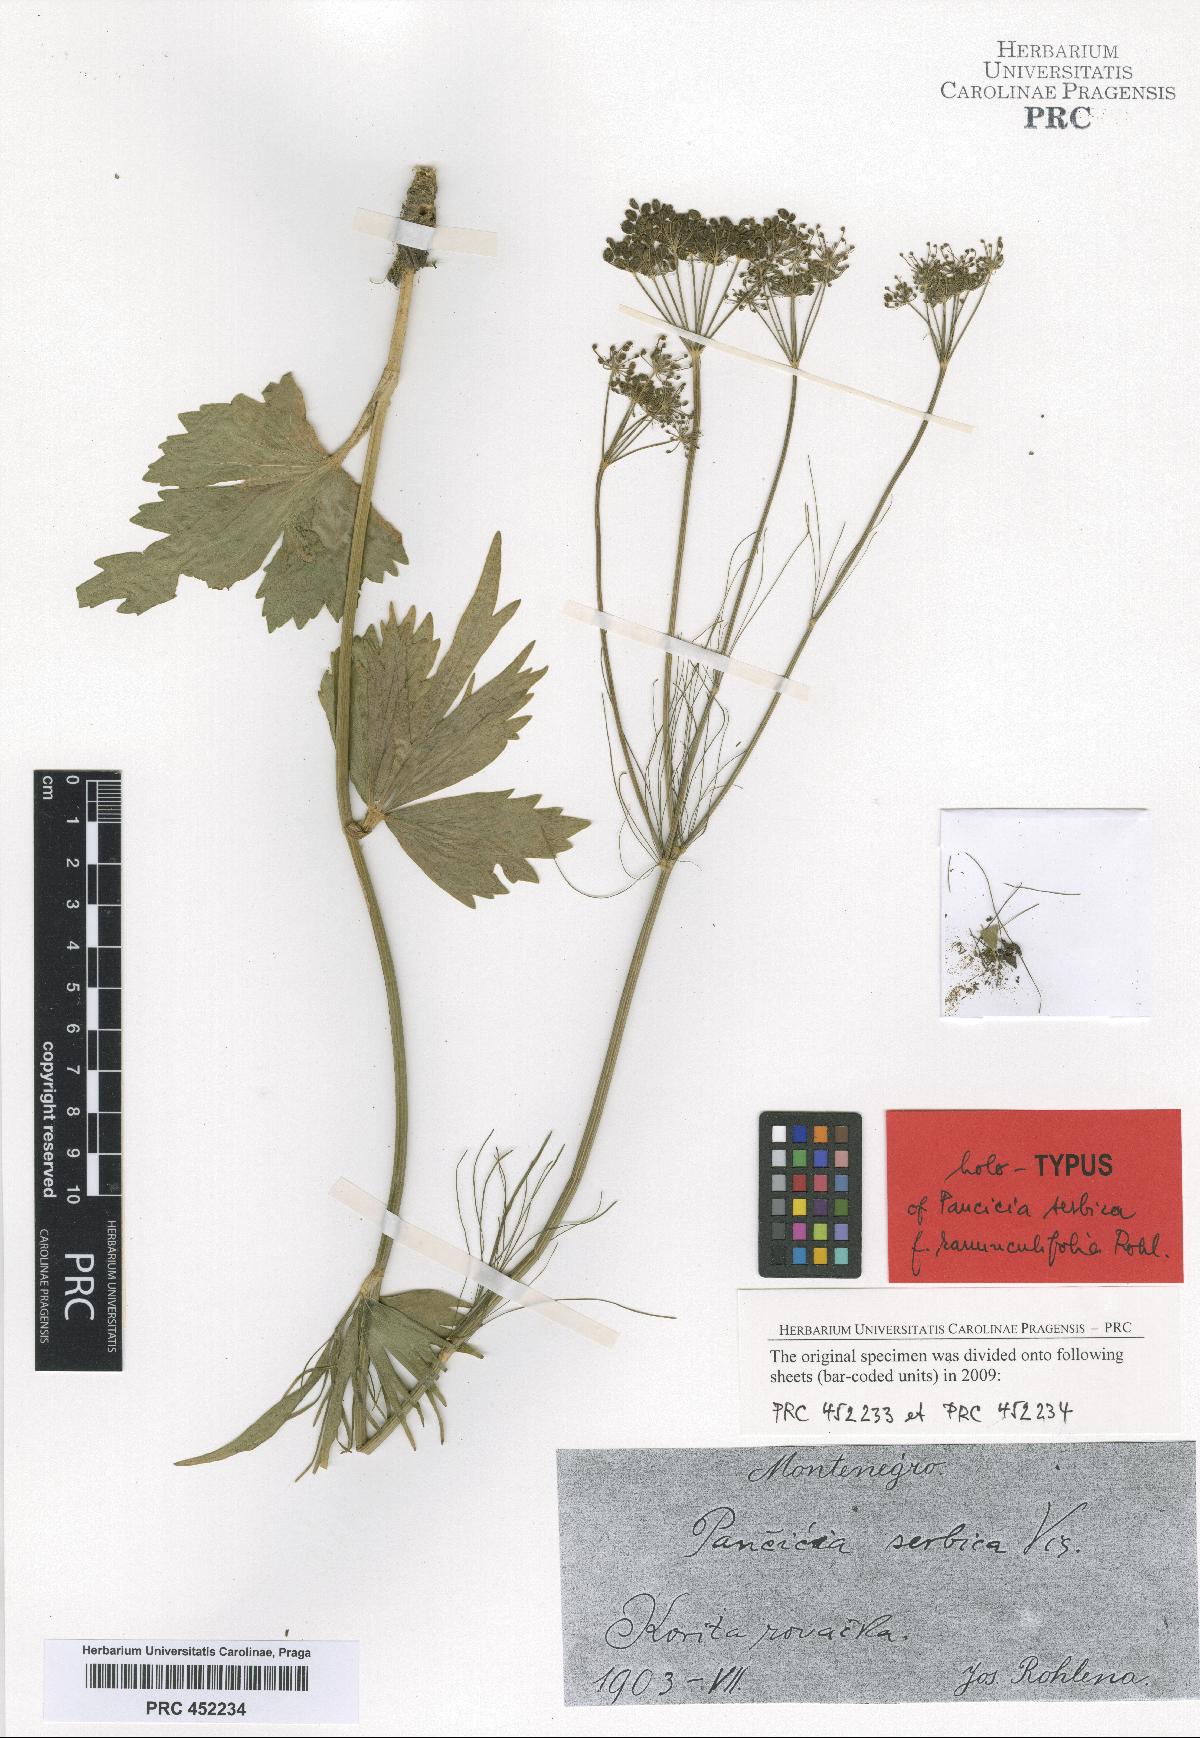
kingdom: Plantae
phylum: Tracheophyta
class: Magnoliopsida
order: Apiales
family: Apiaceae
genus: Pimpinella
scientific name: Pimpinella serbica
